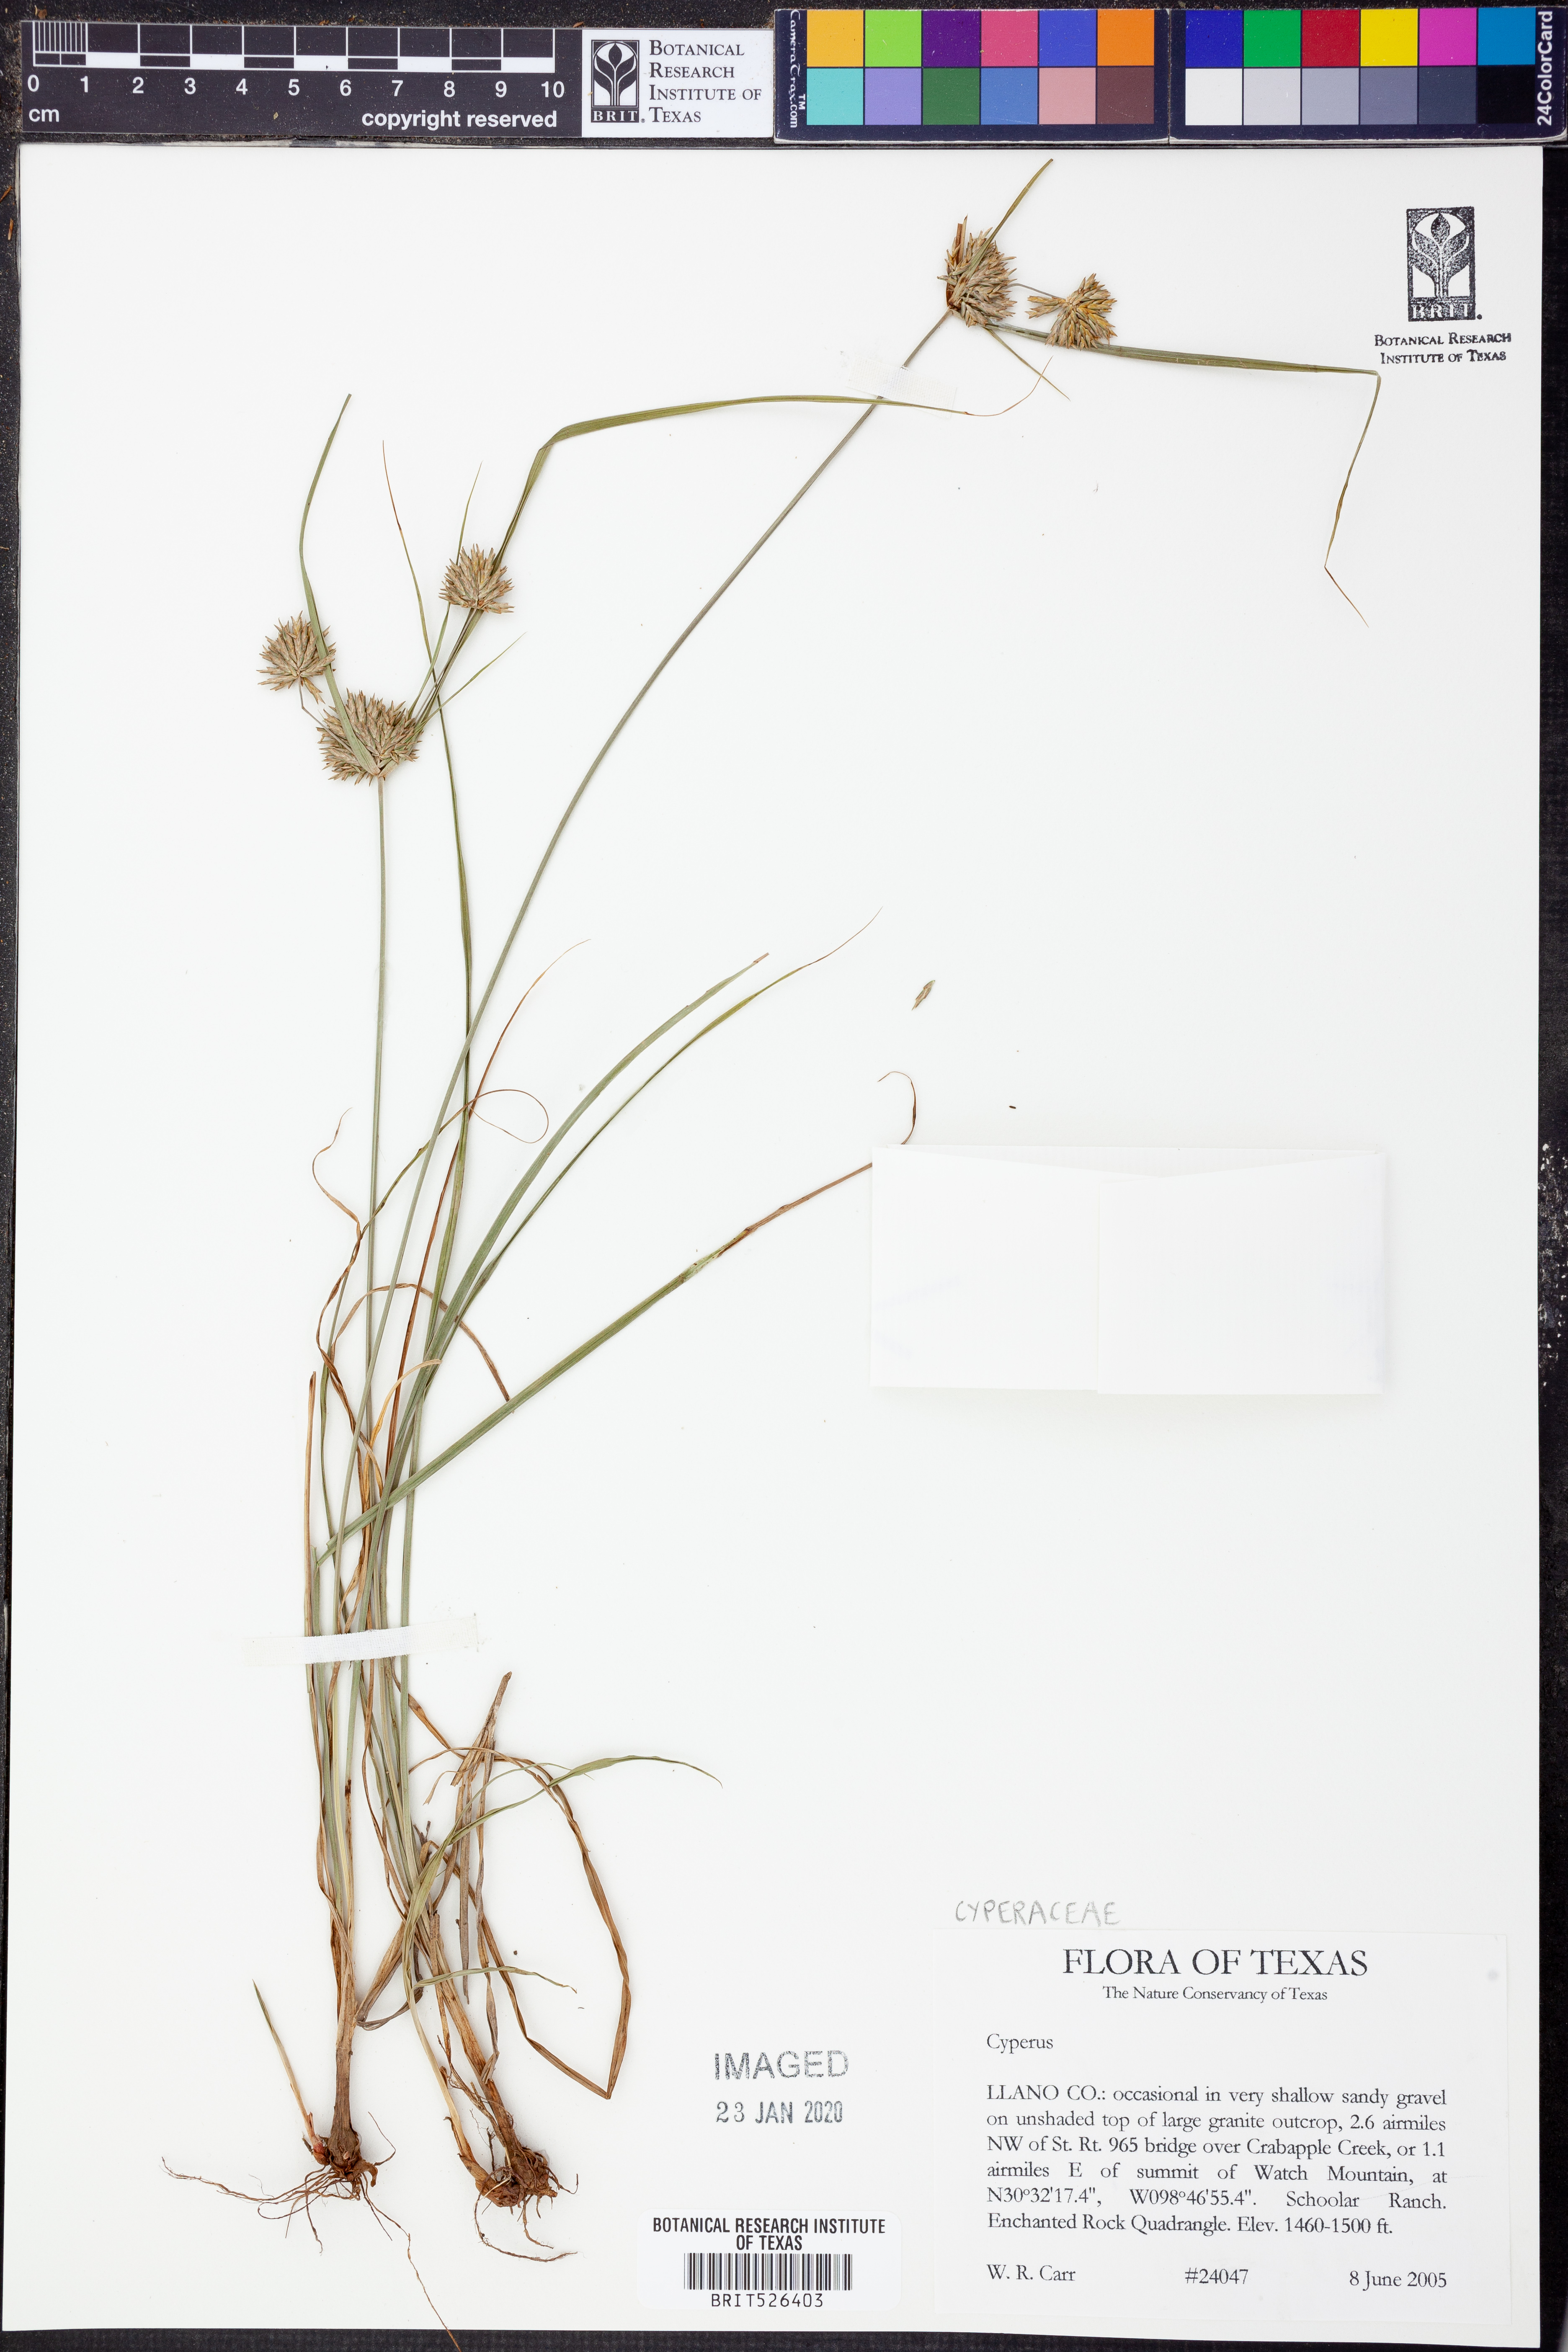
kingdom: Plantae
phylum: Tracheophyta
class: Liliopsida
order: Poales
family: Cyperaceae
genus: Cyperus
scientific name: Cyperus
